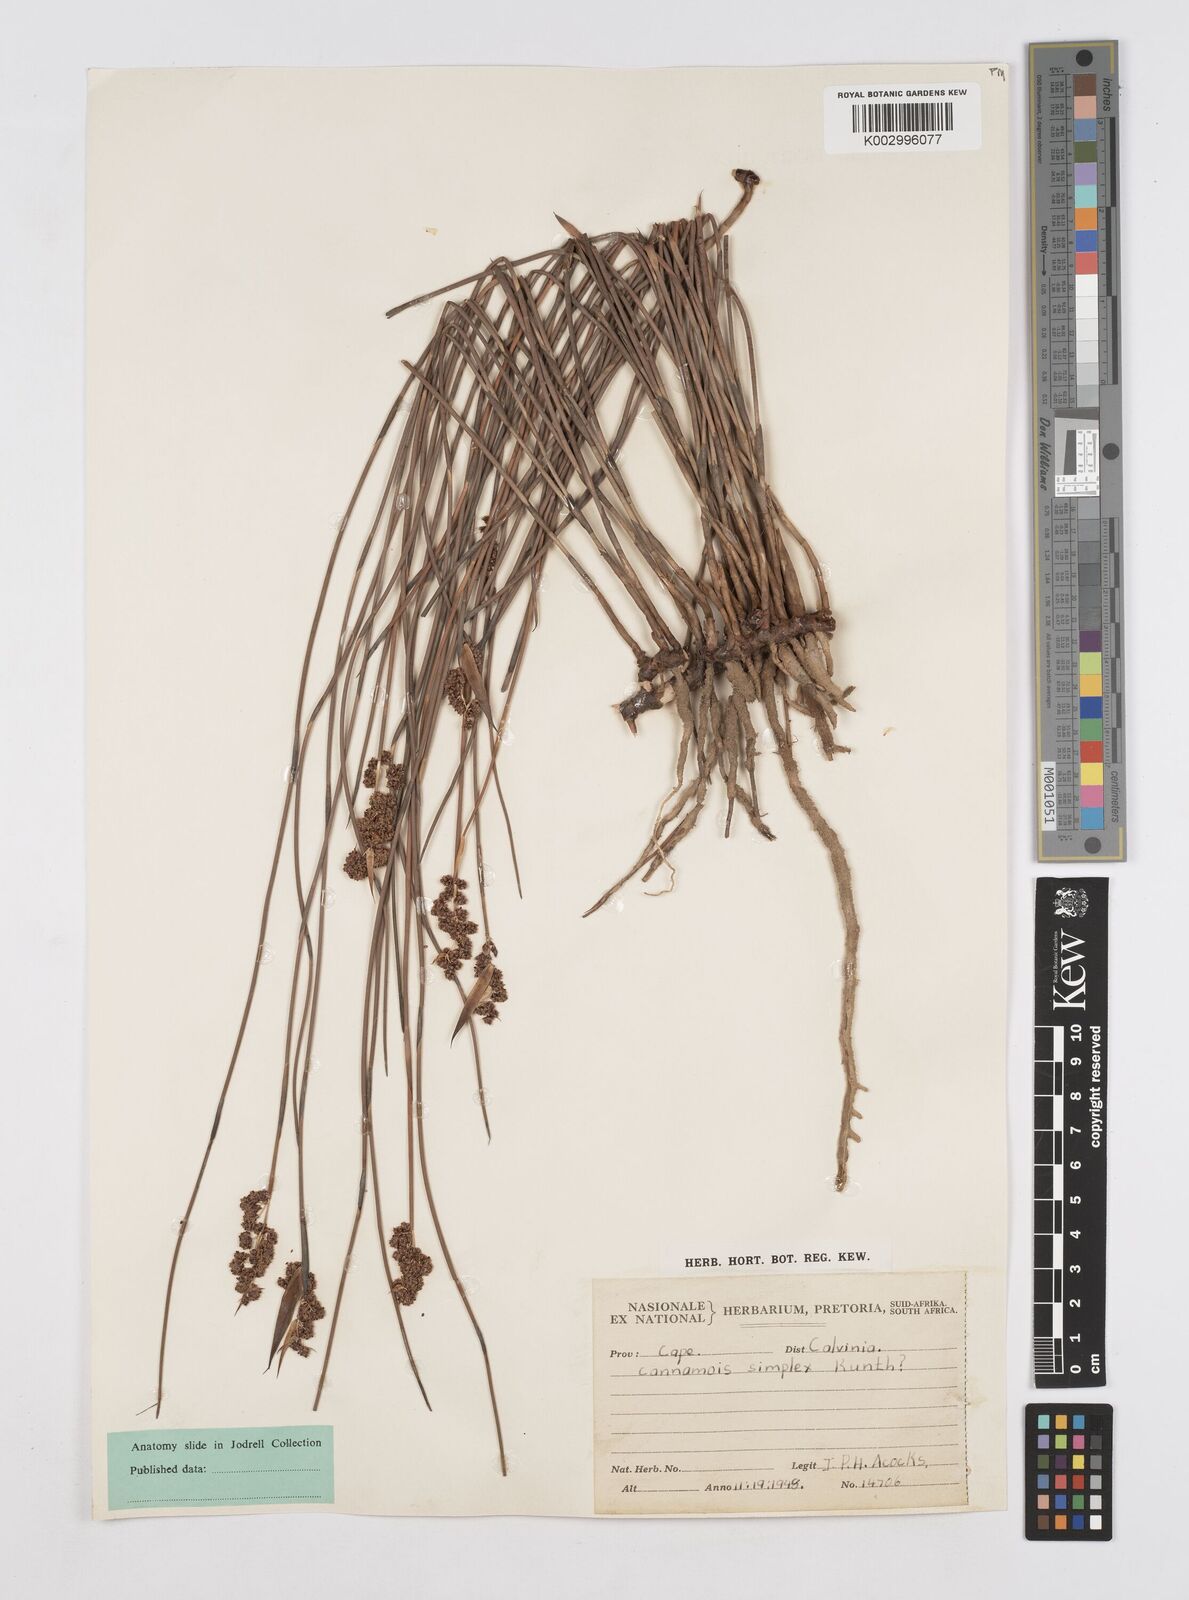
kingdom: Plantae
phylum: Tracheophyta
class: Liliopsida
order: Poales
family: Restionaceae
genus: Cannomois
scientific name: Cannomois parviflora
